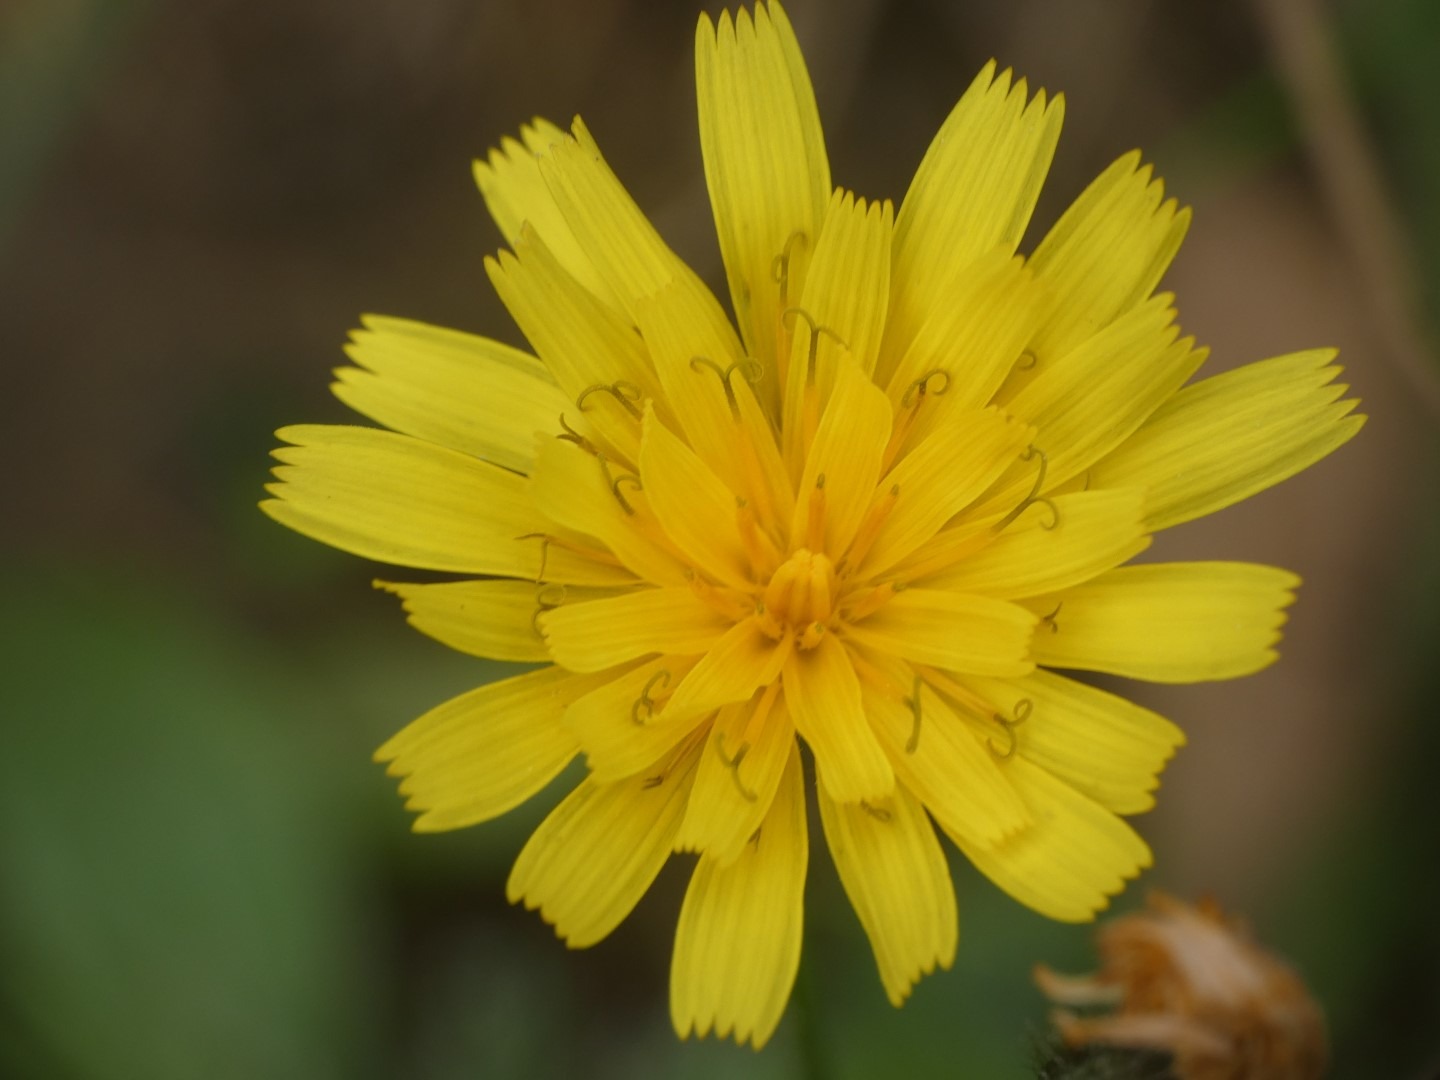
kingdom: Plantae
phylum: Tracheophyta
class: Magnoliopsida
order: Asterales
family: Asteraceae
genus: Scorzoneroides
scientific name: Scorzoneroides autumnalis
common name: Høst-borst
